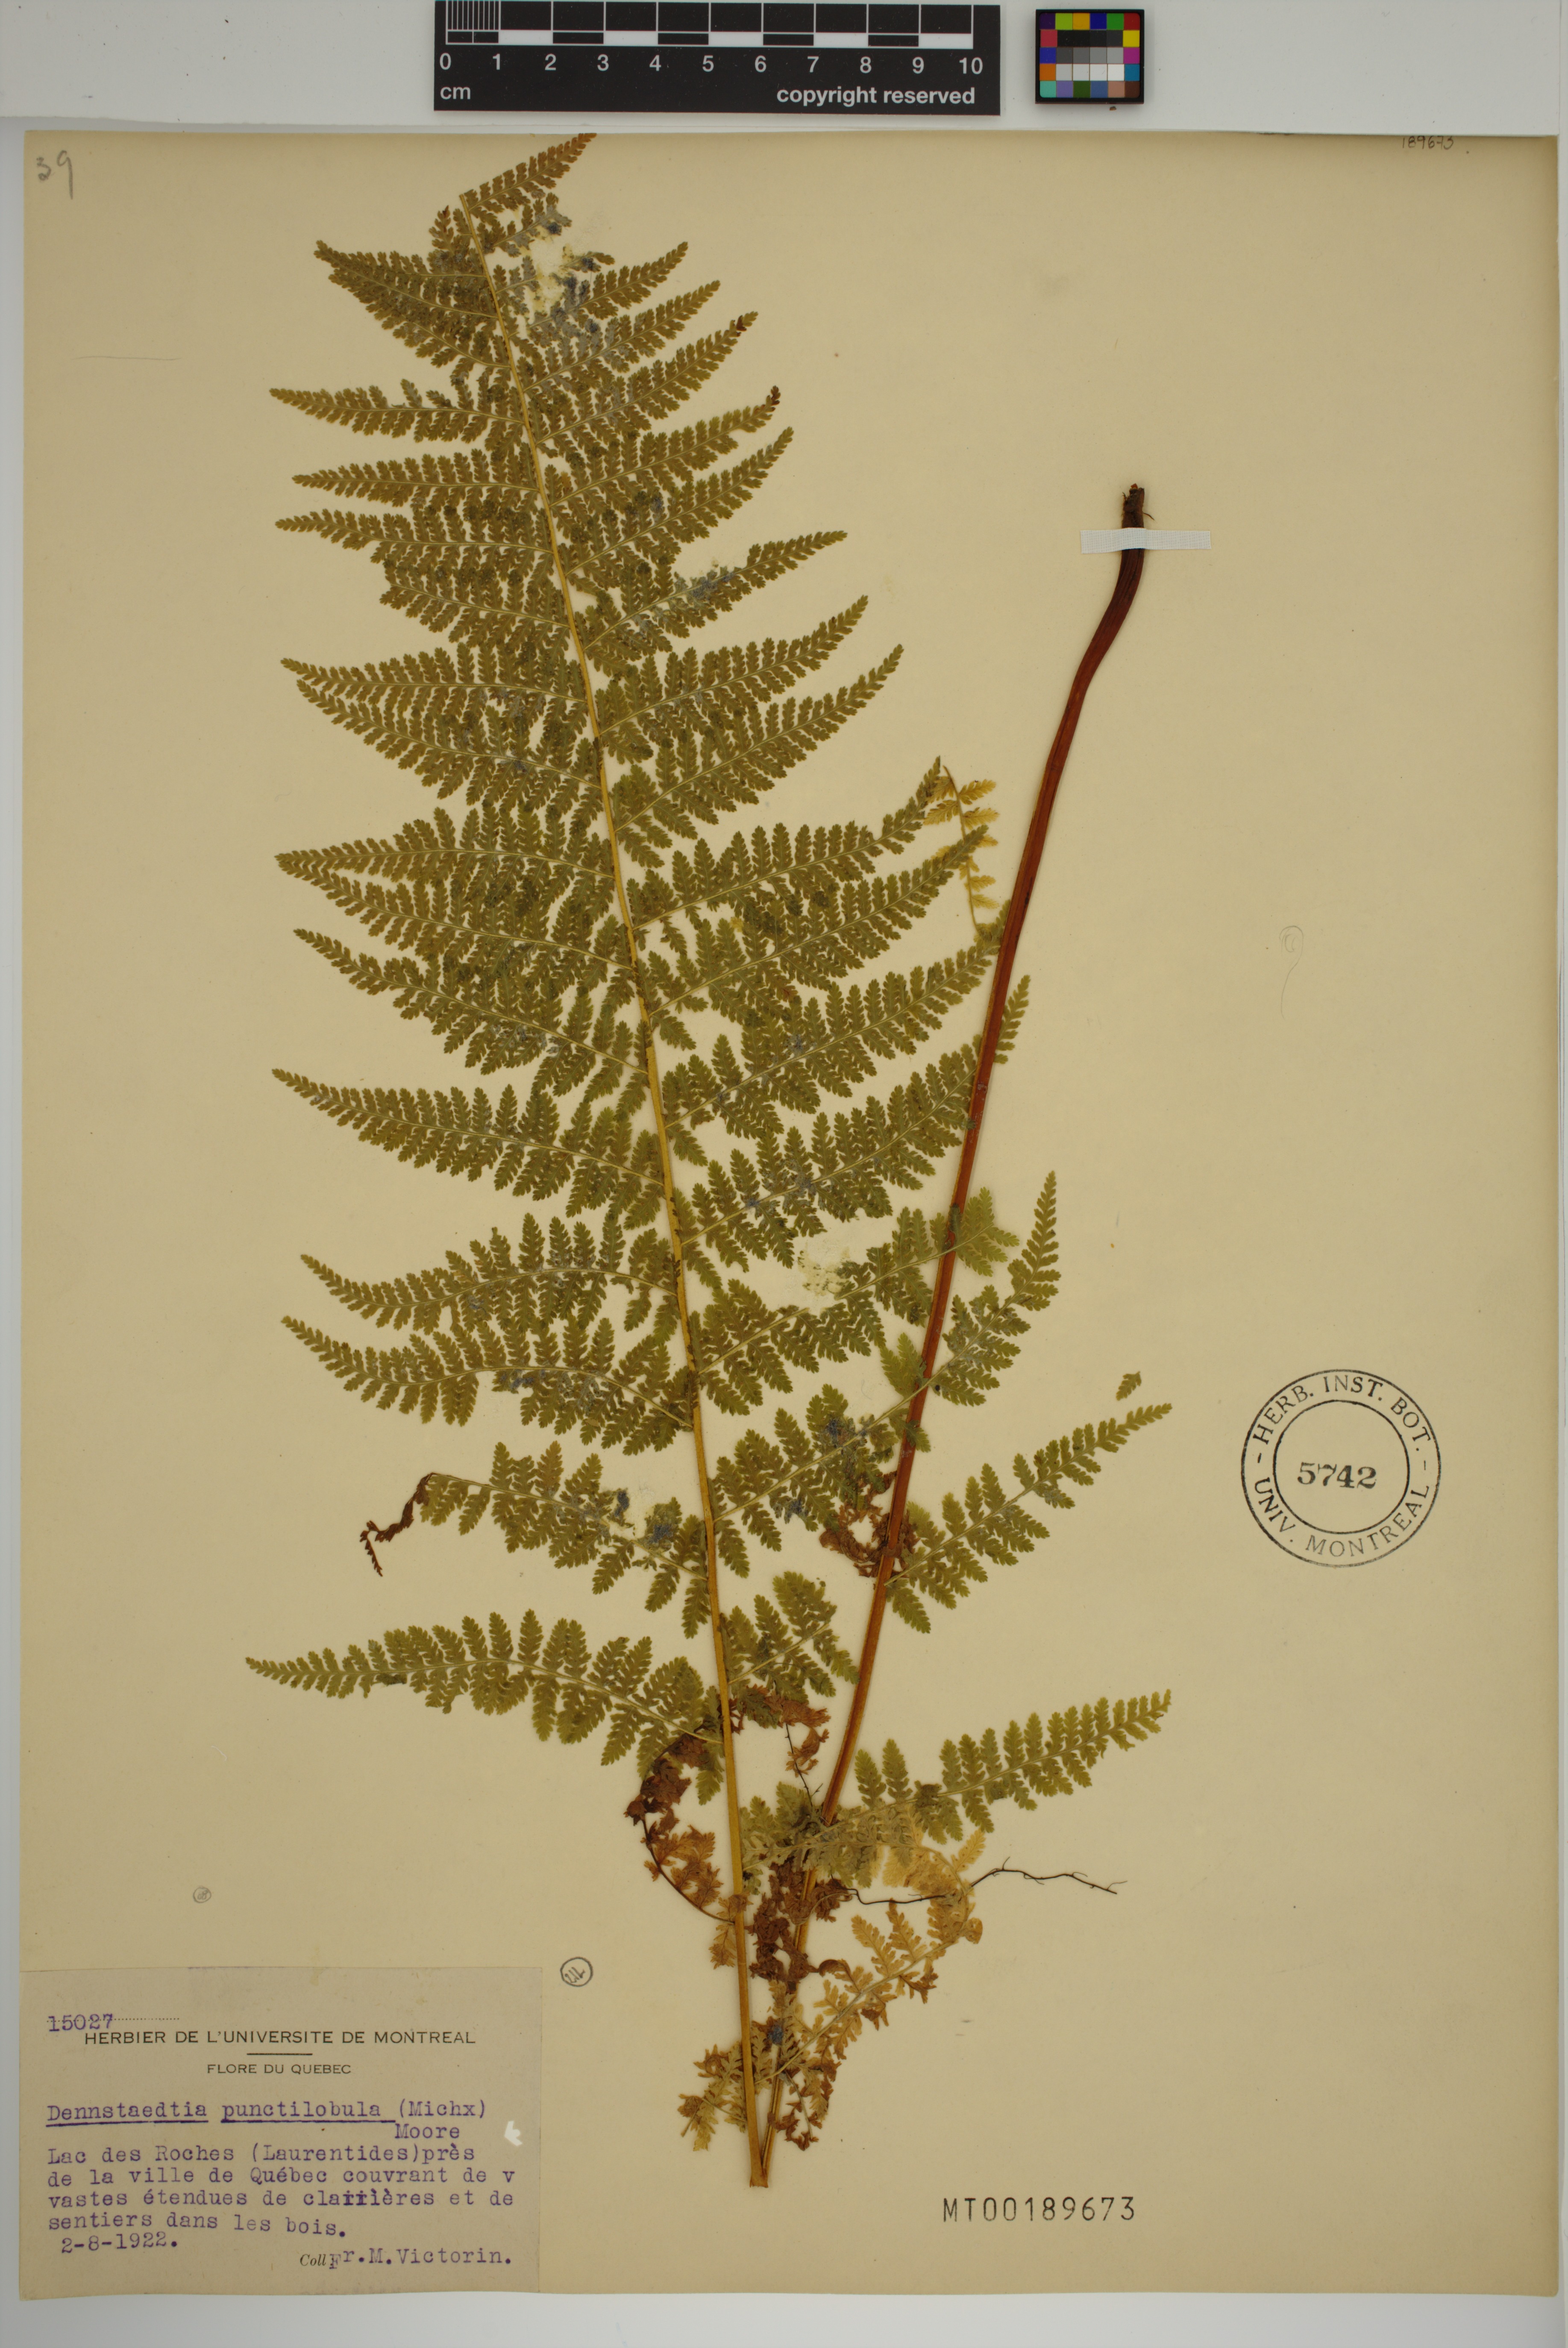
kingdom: Plantae
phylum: Tracheophyta
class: Polypodiopsida
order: Polypodiales
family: Dennstaedtiaceae
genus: Sitobolium
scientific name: Sitobolium punctilobum
